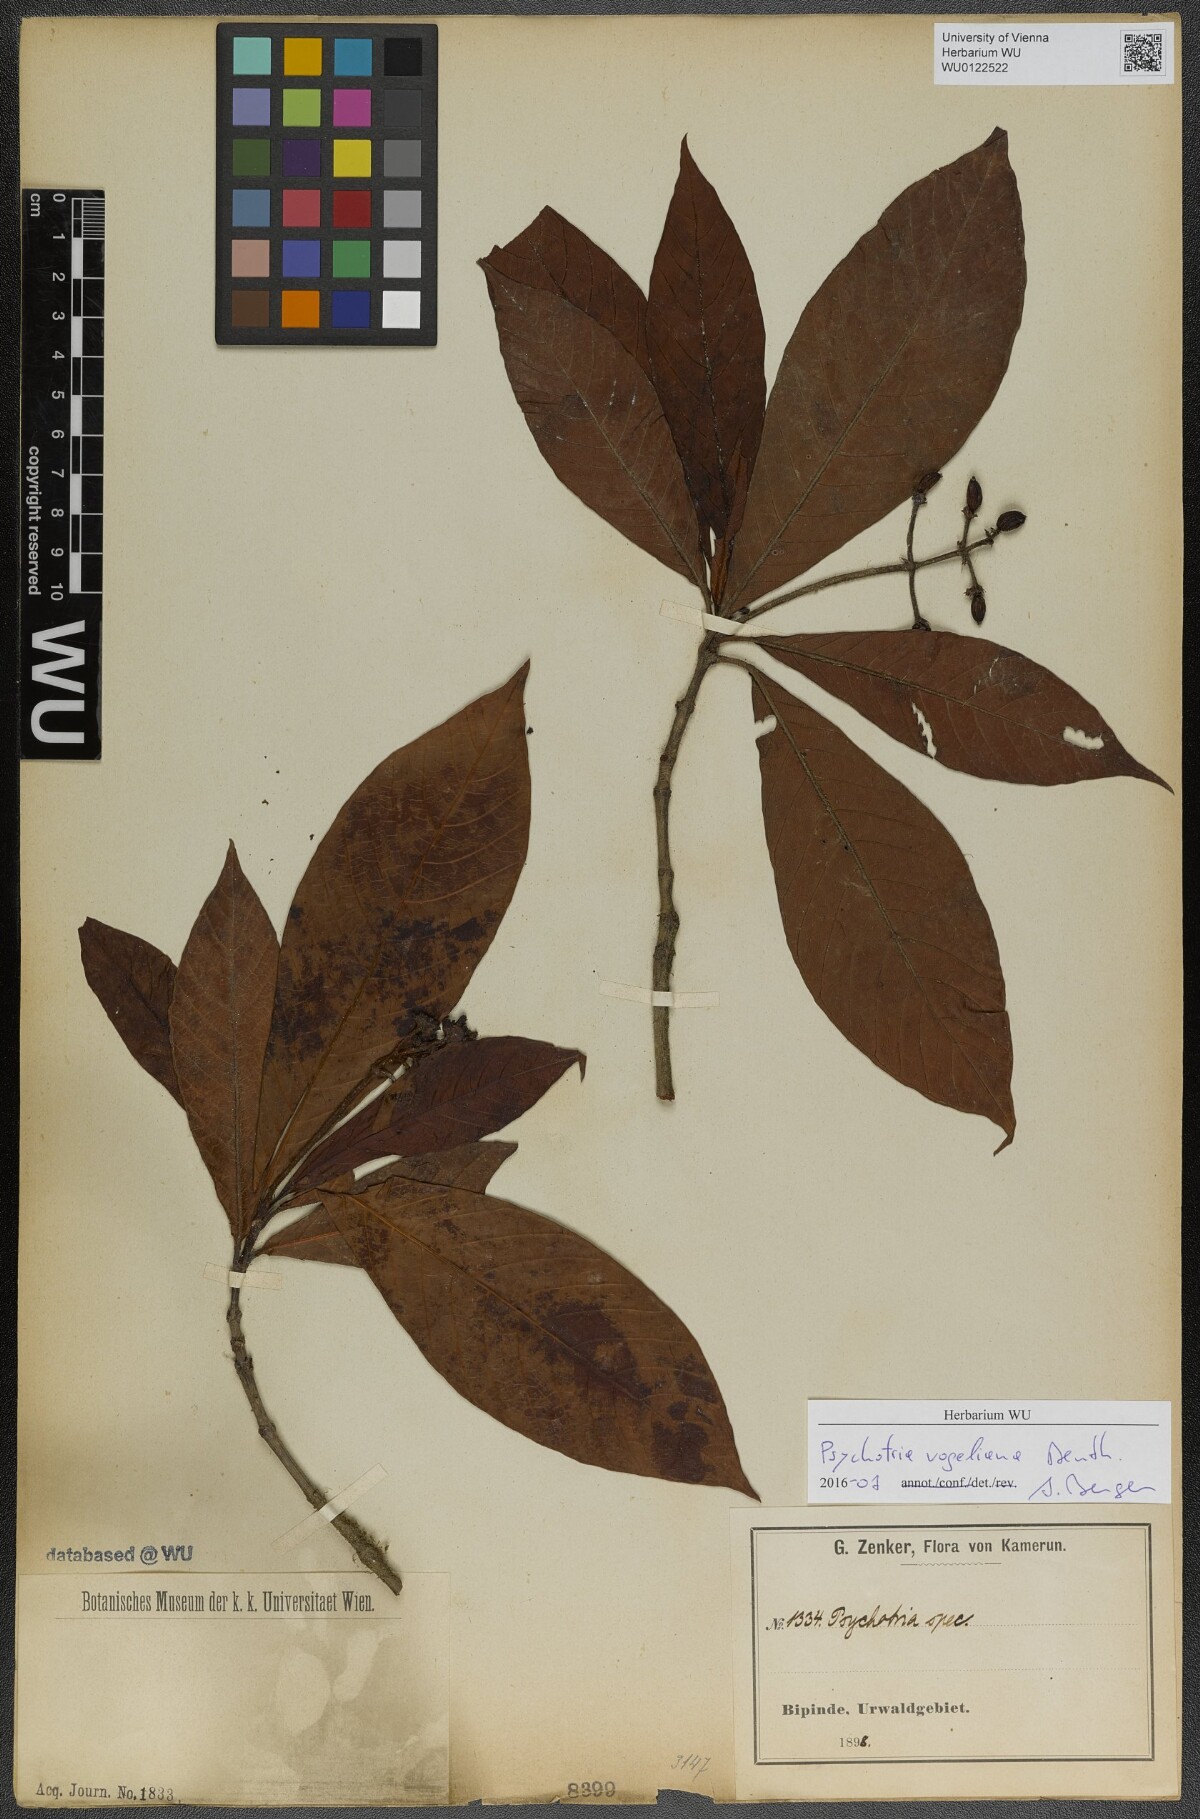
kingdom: Plantae
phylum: Tracheophyta
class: Magnoliopsida
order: Gentianales
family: Rubiaceae
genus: Psychotria
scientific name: Psychotria vogeliana
